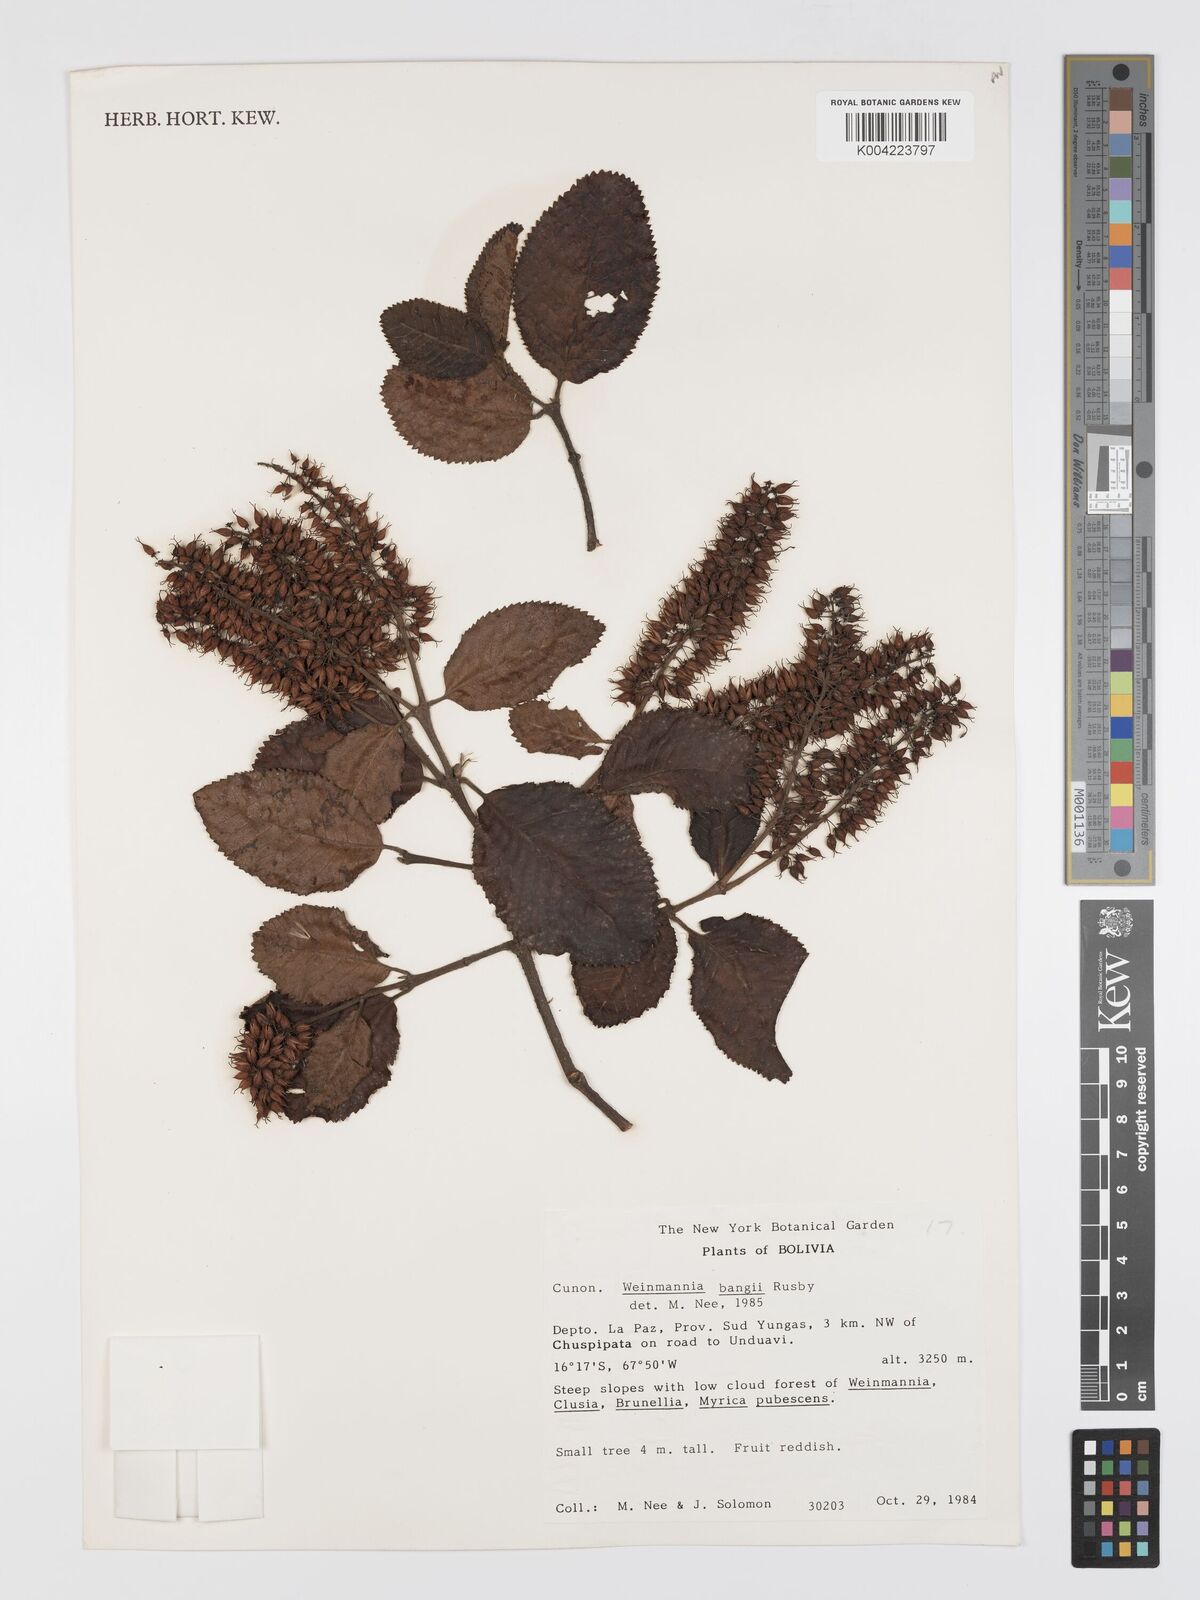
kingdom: Plantae
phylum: Tracheophyta
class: Magnoliopsida
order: Oxalidales
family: Cunoniaceae
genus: Weinmannia
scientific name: Weinmannia bangii
